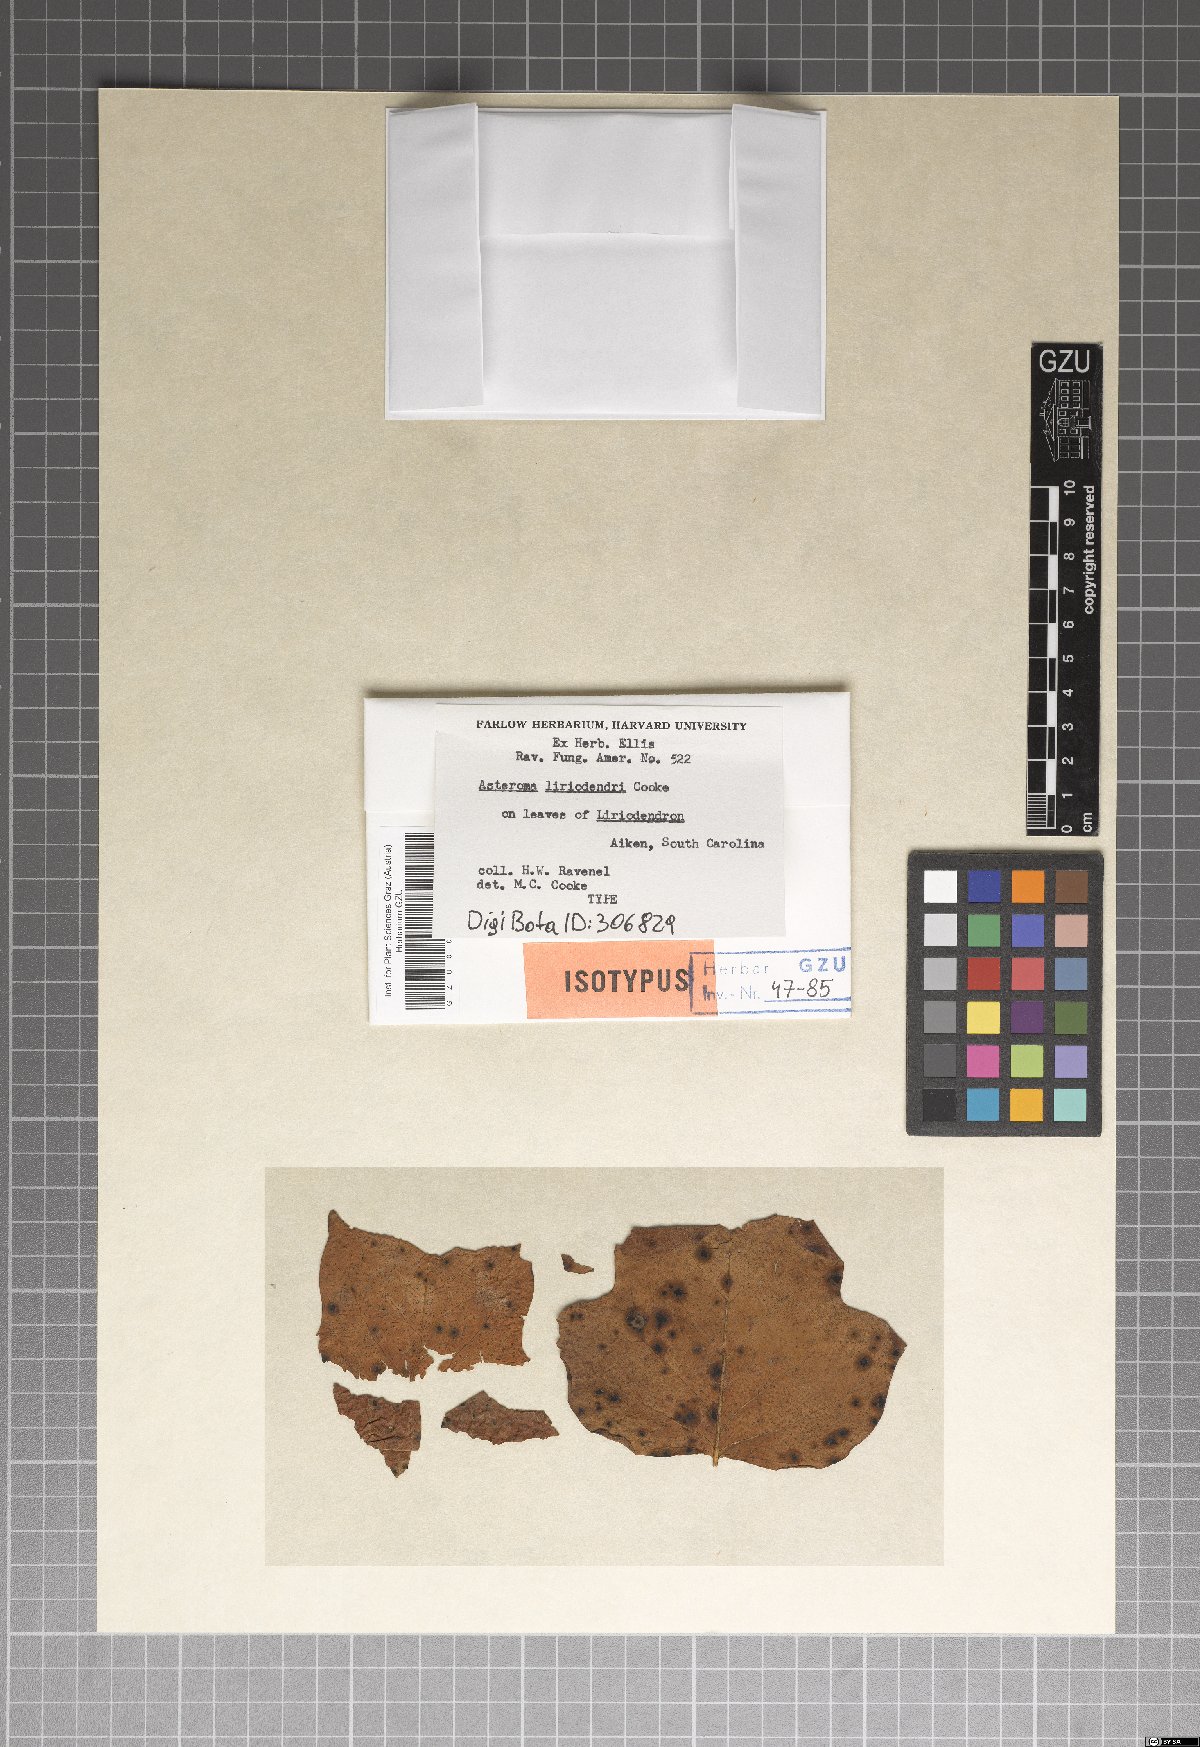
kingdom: Fungi
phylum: Ascomycota
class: Sordariomycetes
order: Diaporthales
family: Gnomoniaceae
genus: Asteroma
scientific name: Asteroma
